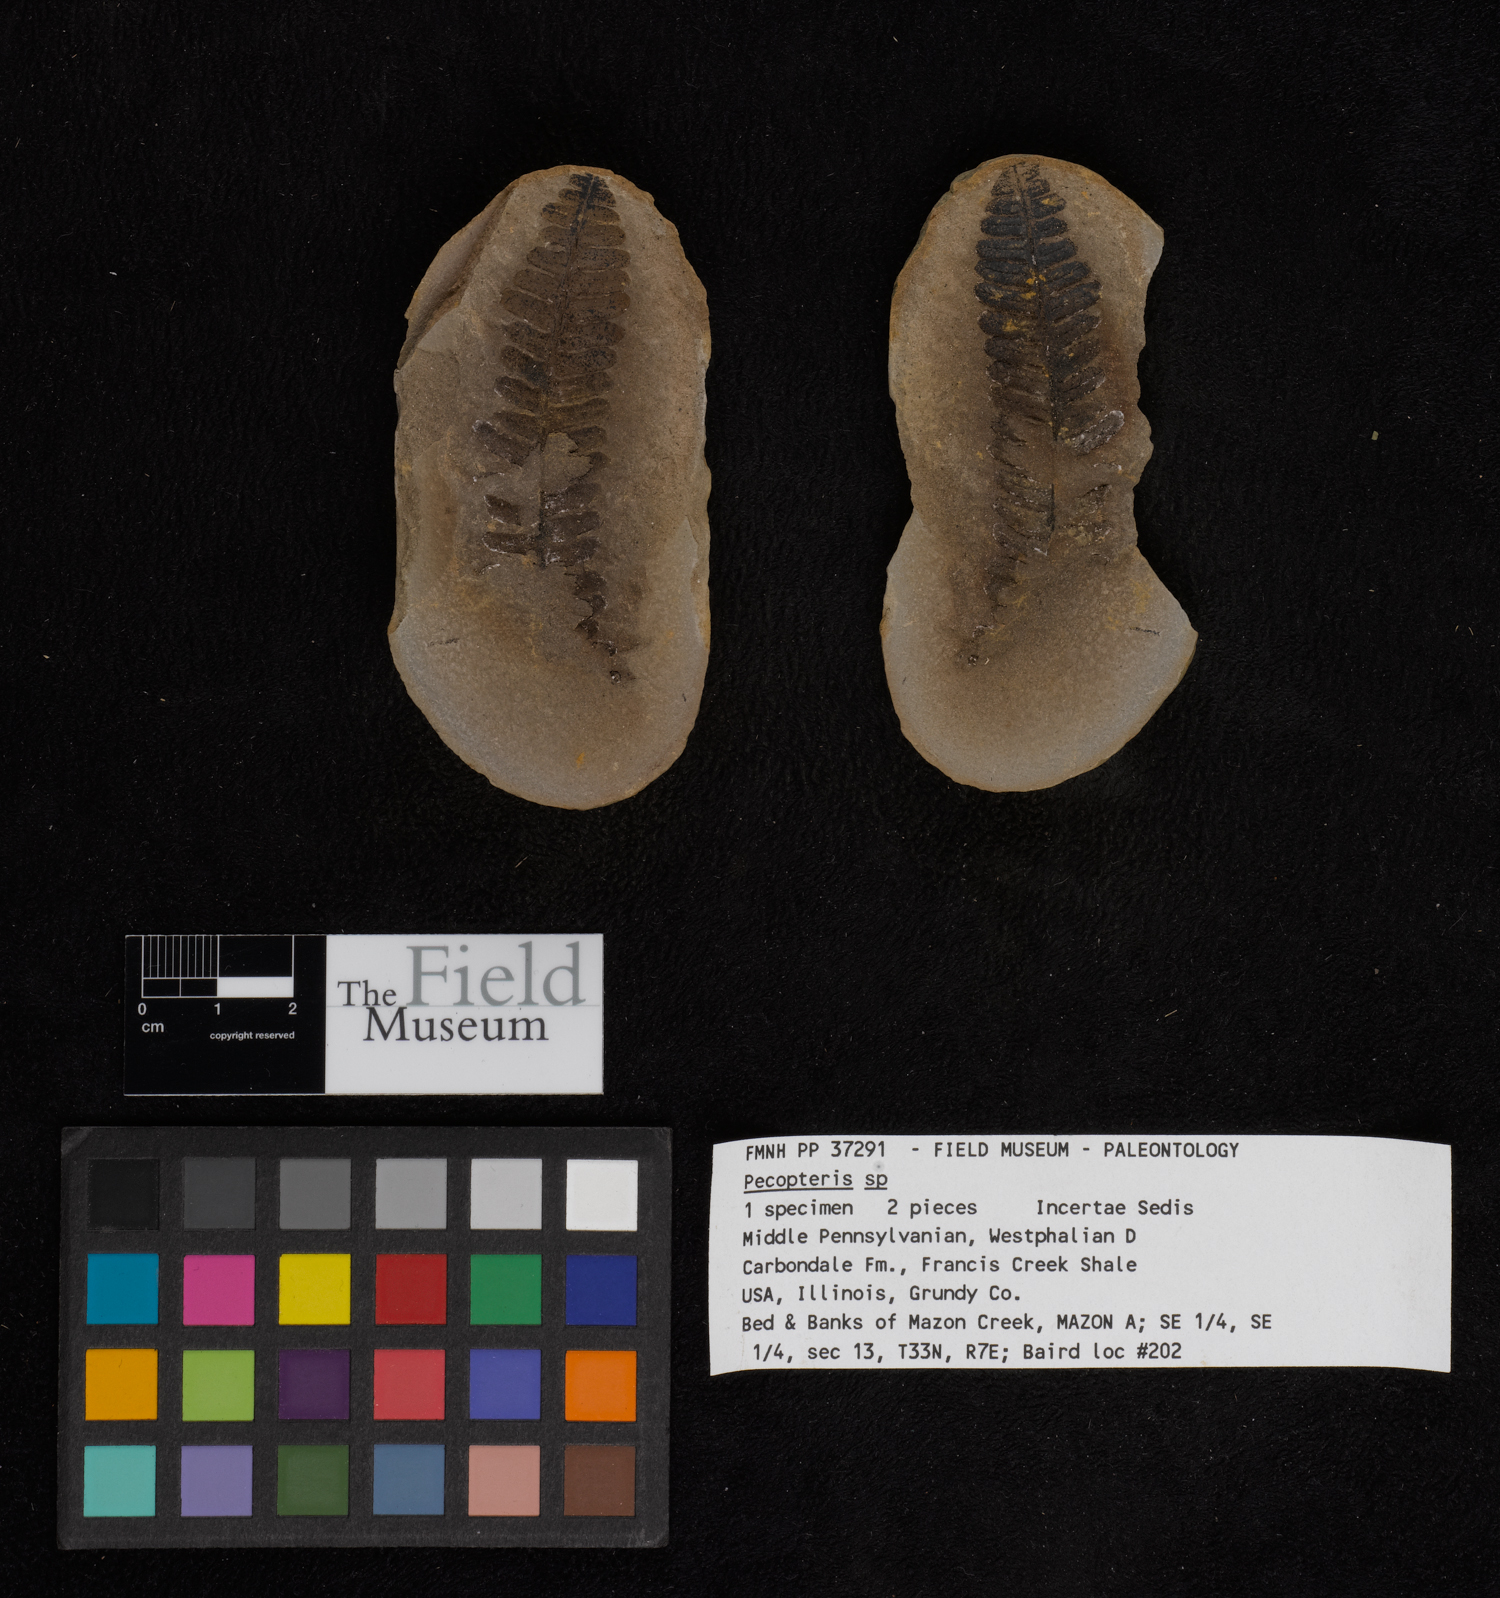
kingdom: Plantae
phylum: Tracheophyta
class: Polypodiopsida
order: Marattiales
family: Asterothecaceae
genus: Pecopteris
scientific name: Pecopteris
